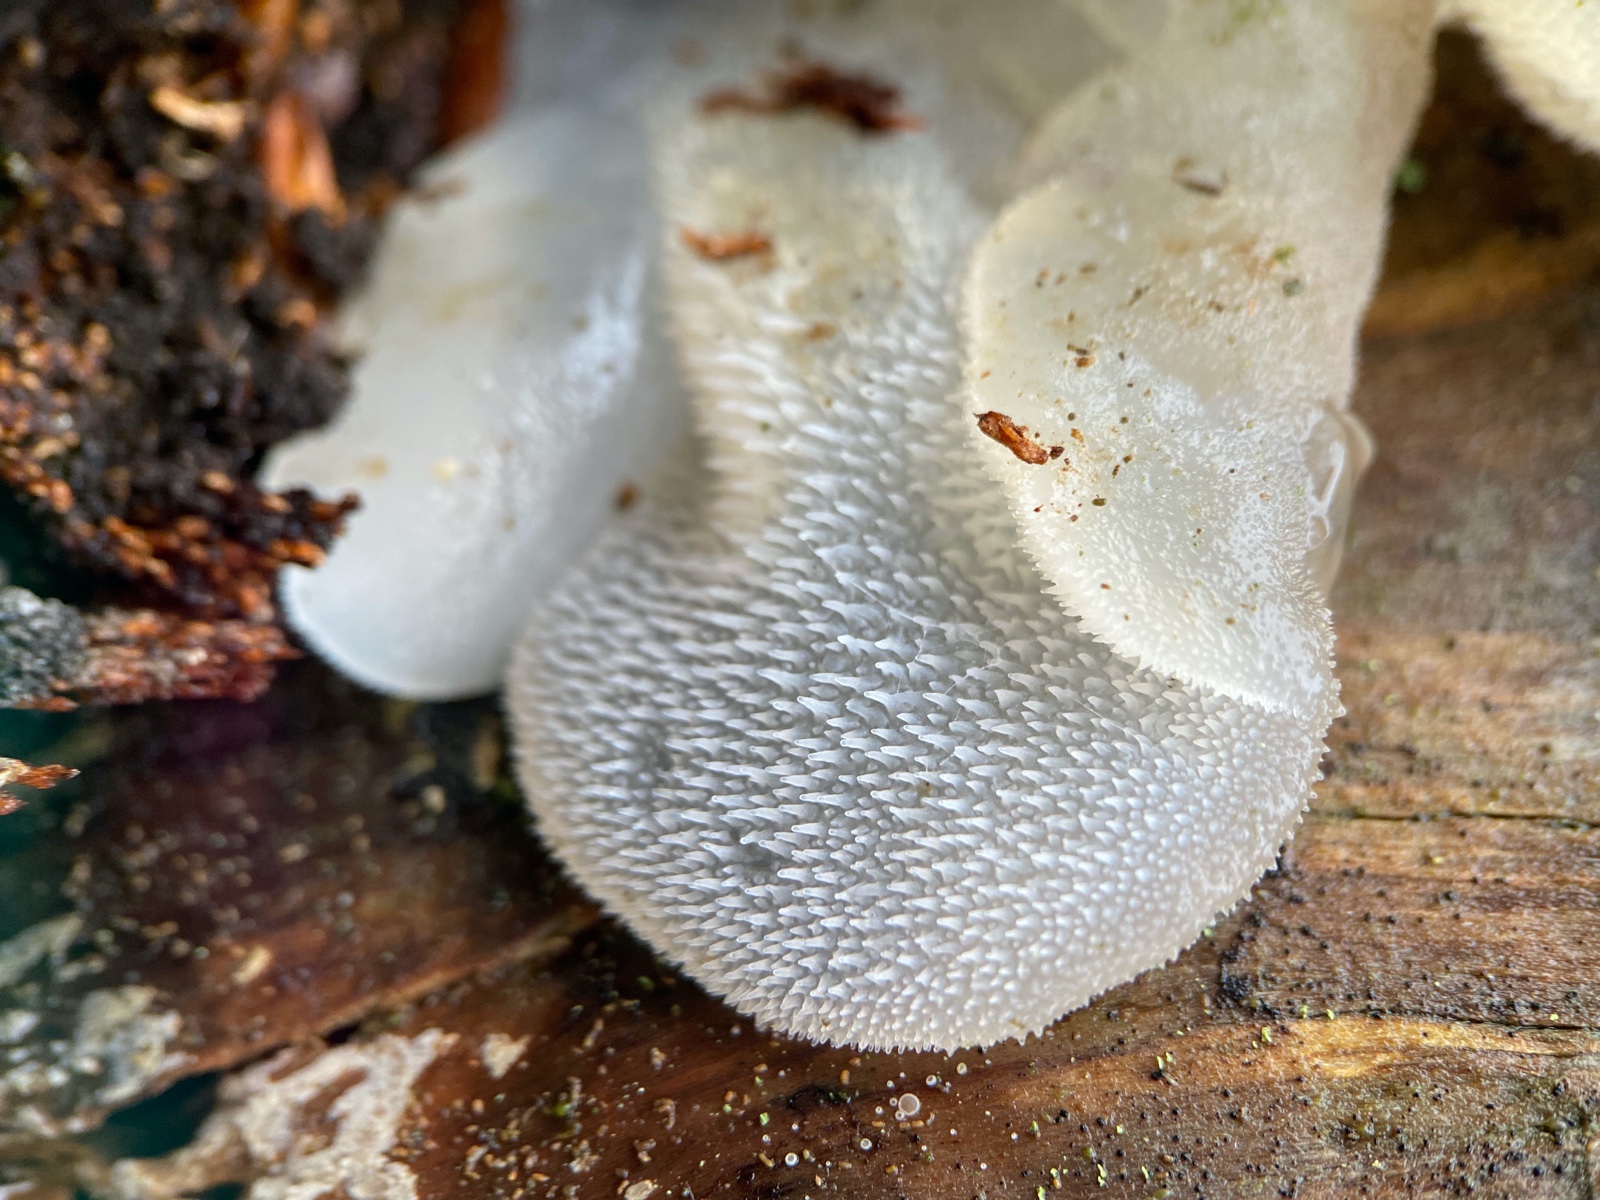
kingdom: Fungi
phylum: Basidiomycota
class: Agaricomycetes
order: Auriculariales
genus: Pseudohydnum
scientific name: Pseudohydnum gelatinosum
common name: bævretand
